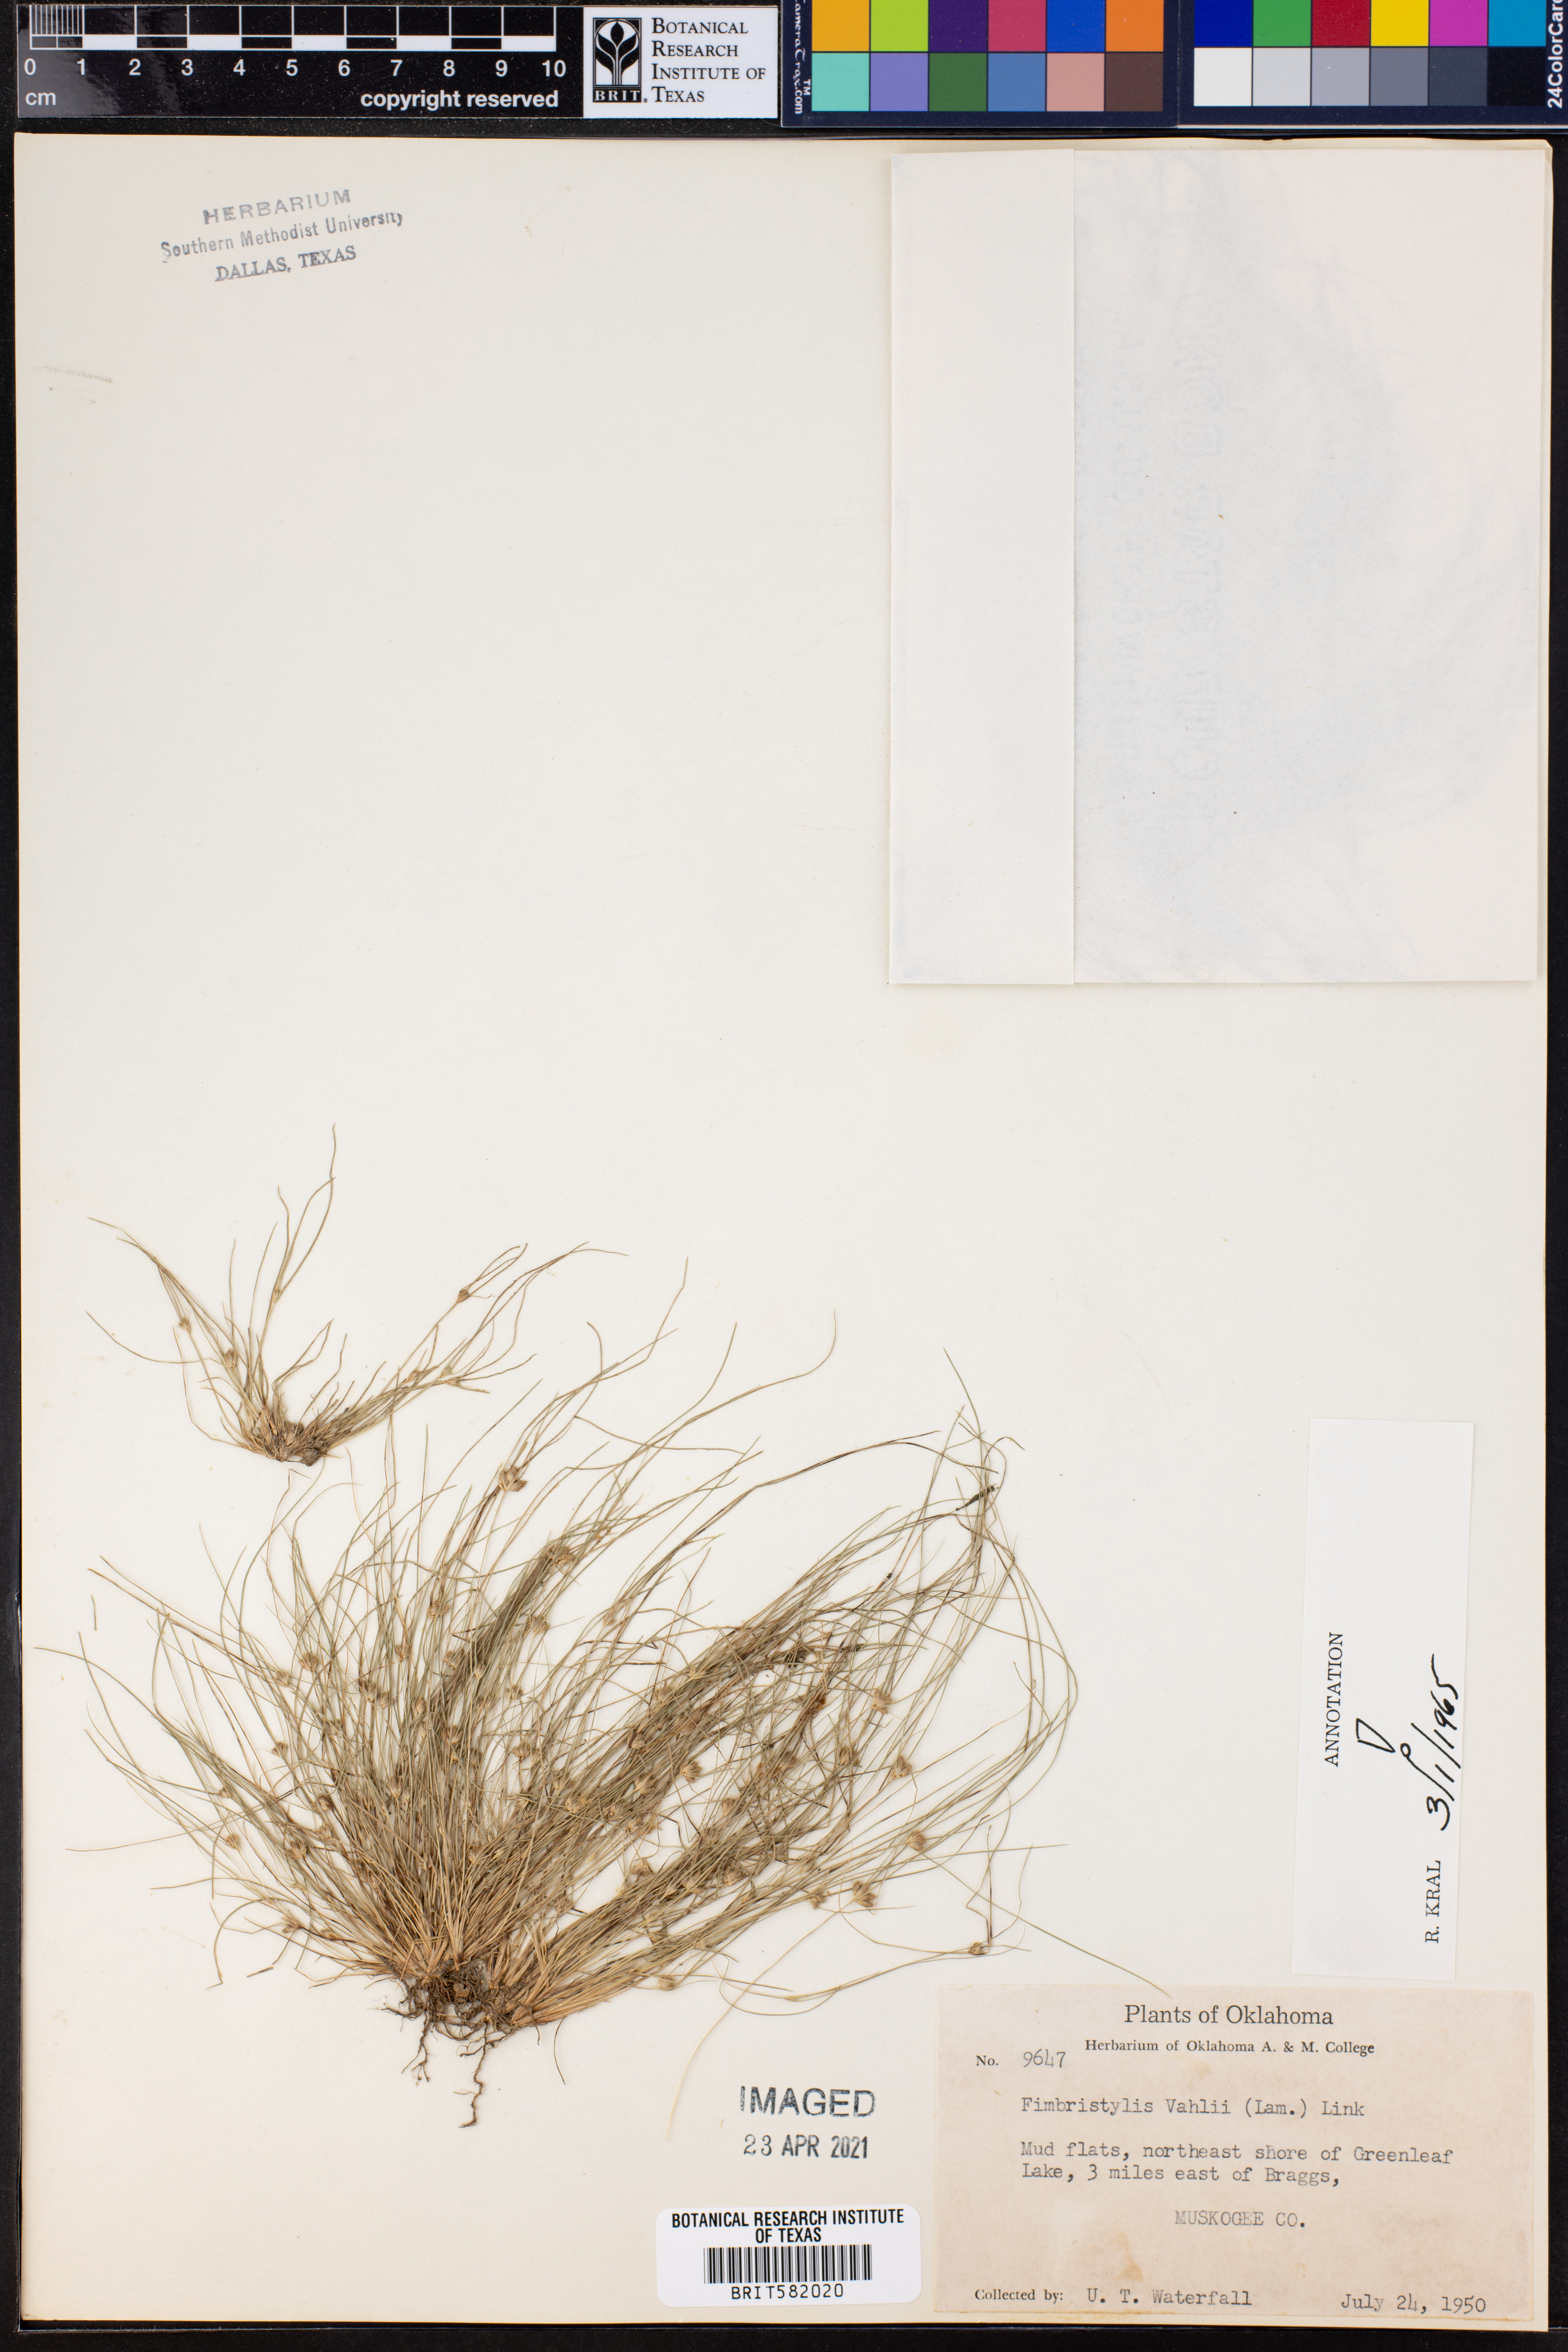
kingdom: Plantae
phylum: Tracheophyta
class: Liliopsida
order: Poales
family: Cyperaceae
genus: Fimbristylis
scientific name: Fimbristylis vahlii
